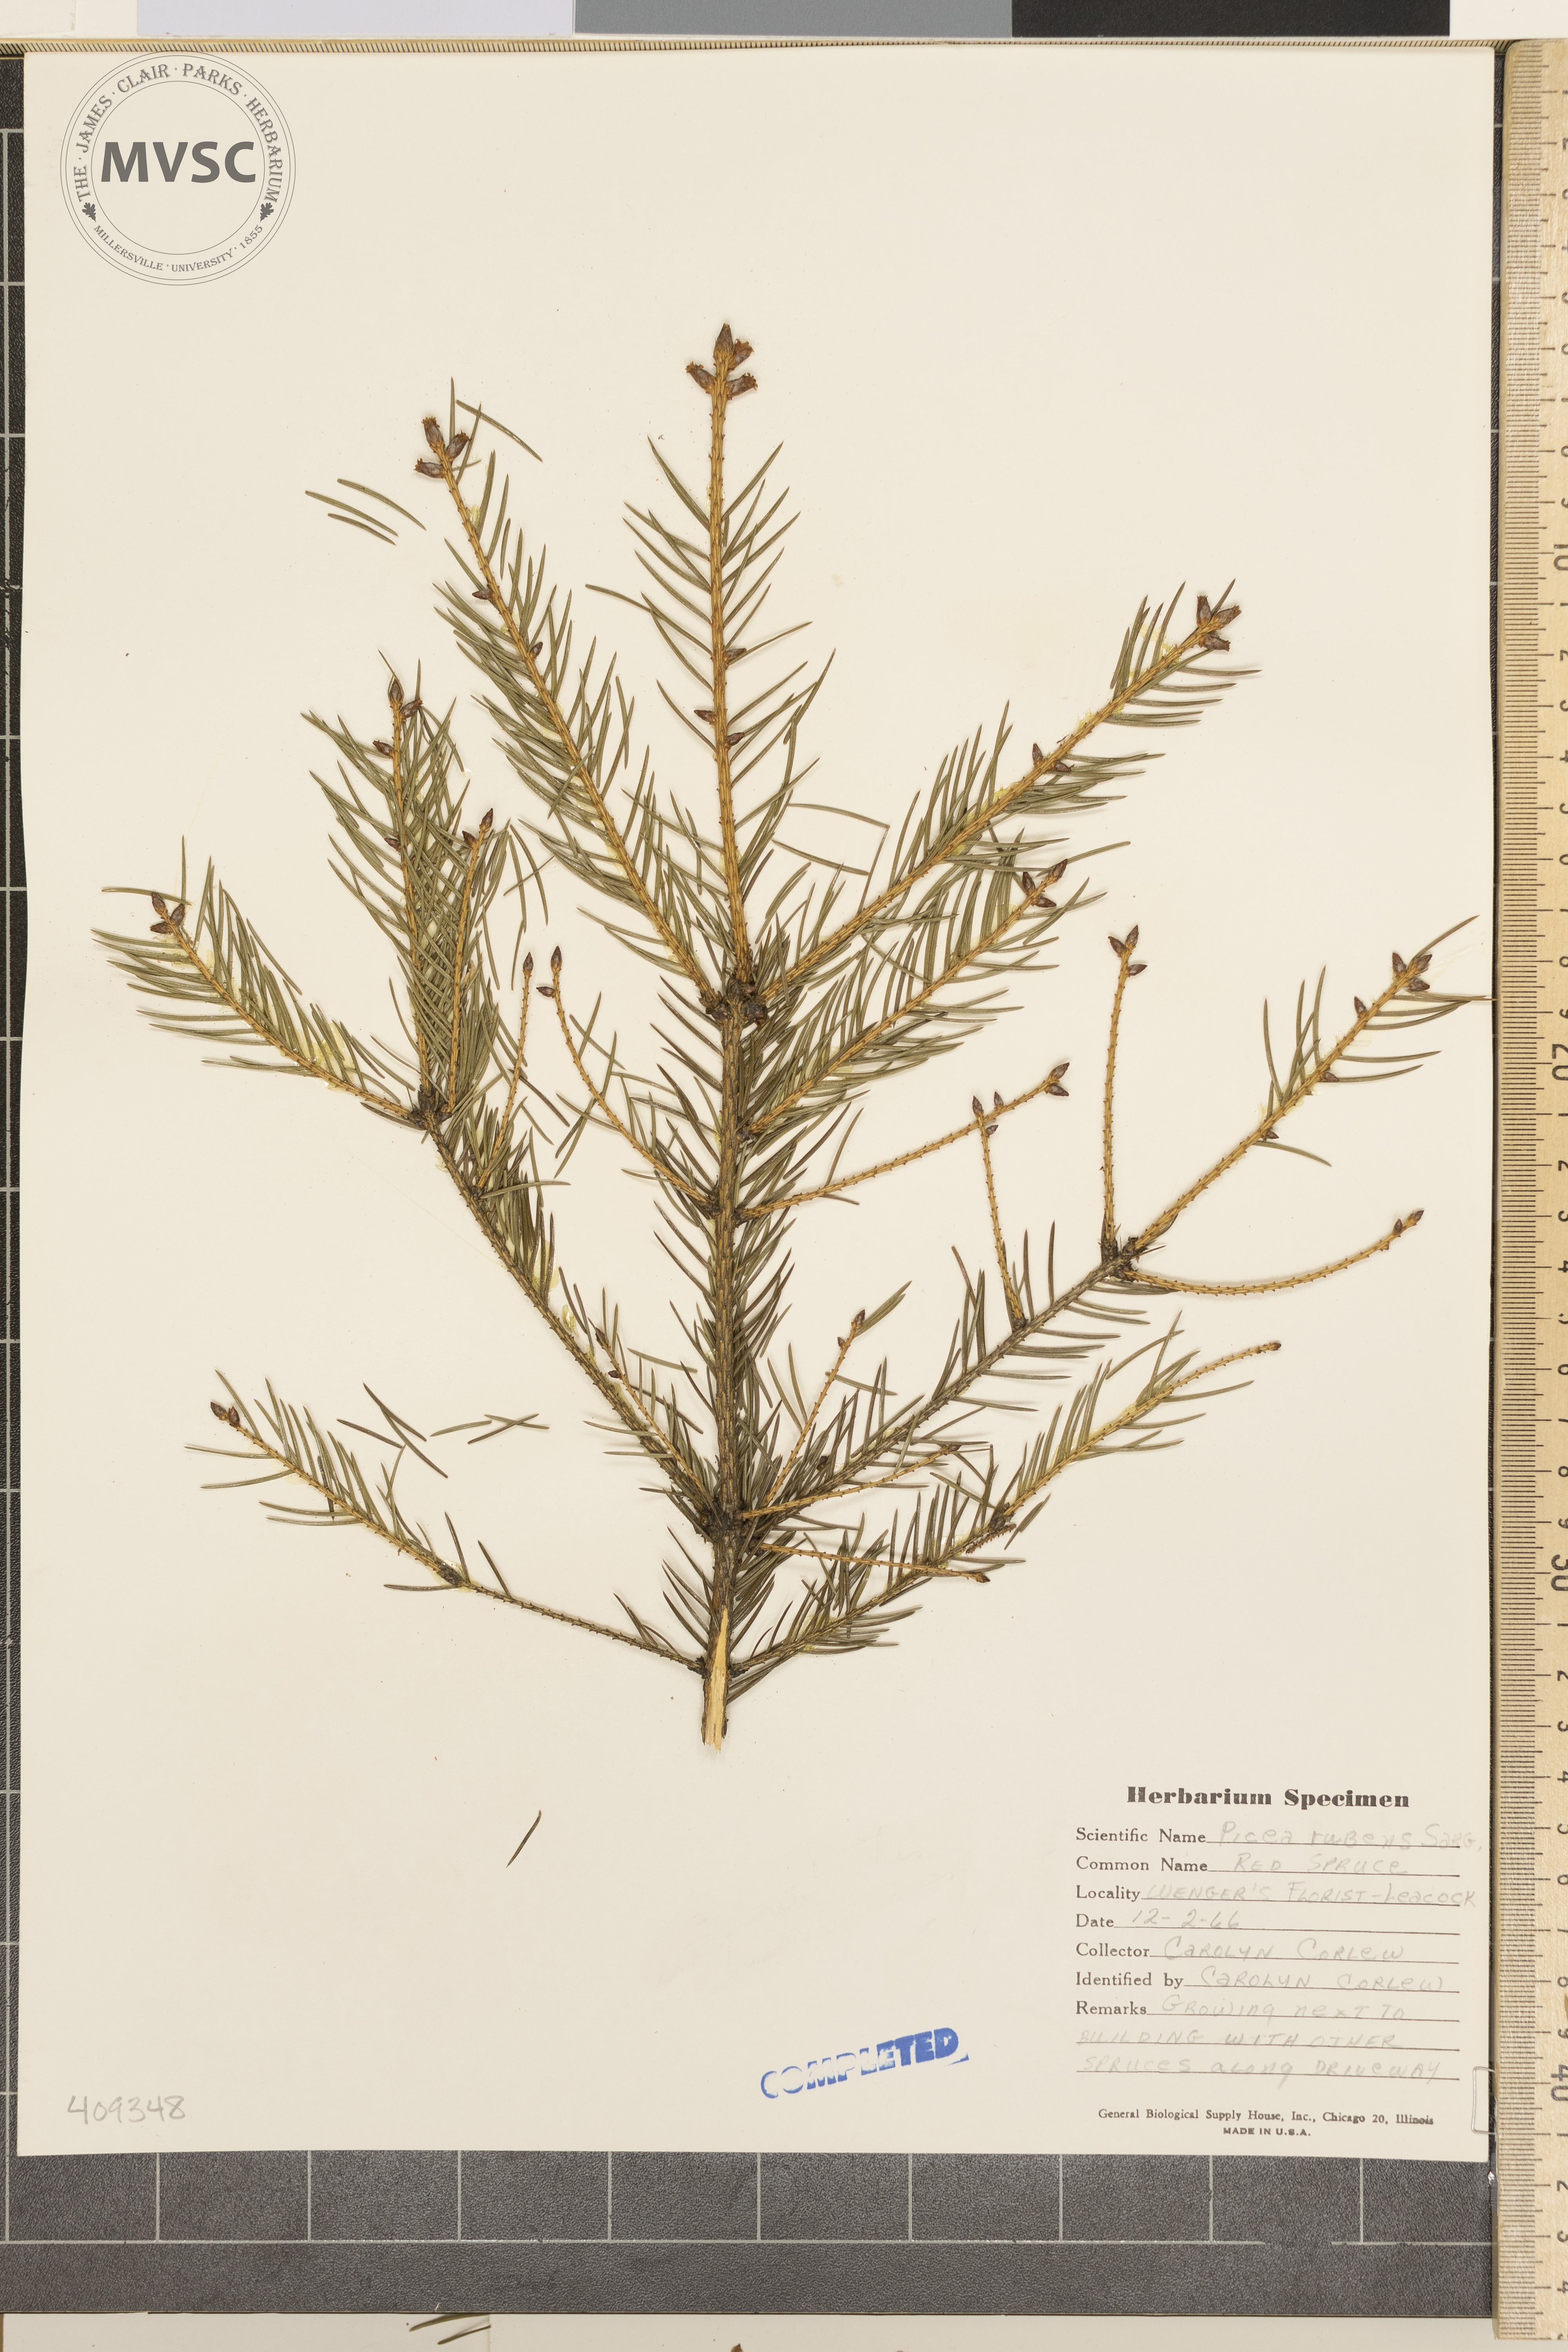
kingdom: Plantae
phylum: Tracheophyta
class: Pinopsida
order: Pinales
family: Pinaceae
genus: Picea
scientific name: Picea rubens
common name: Red spruce
